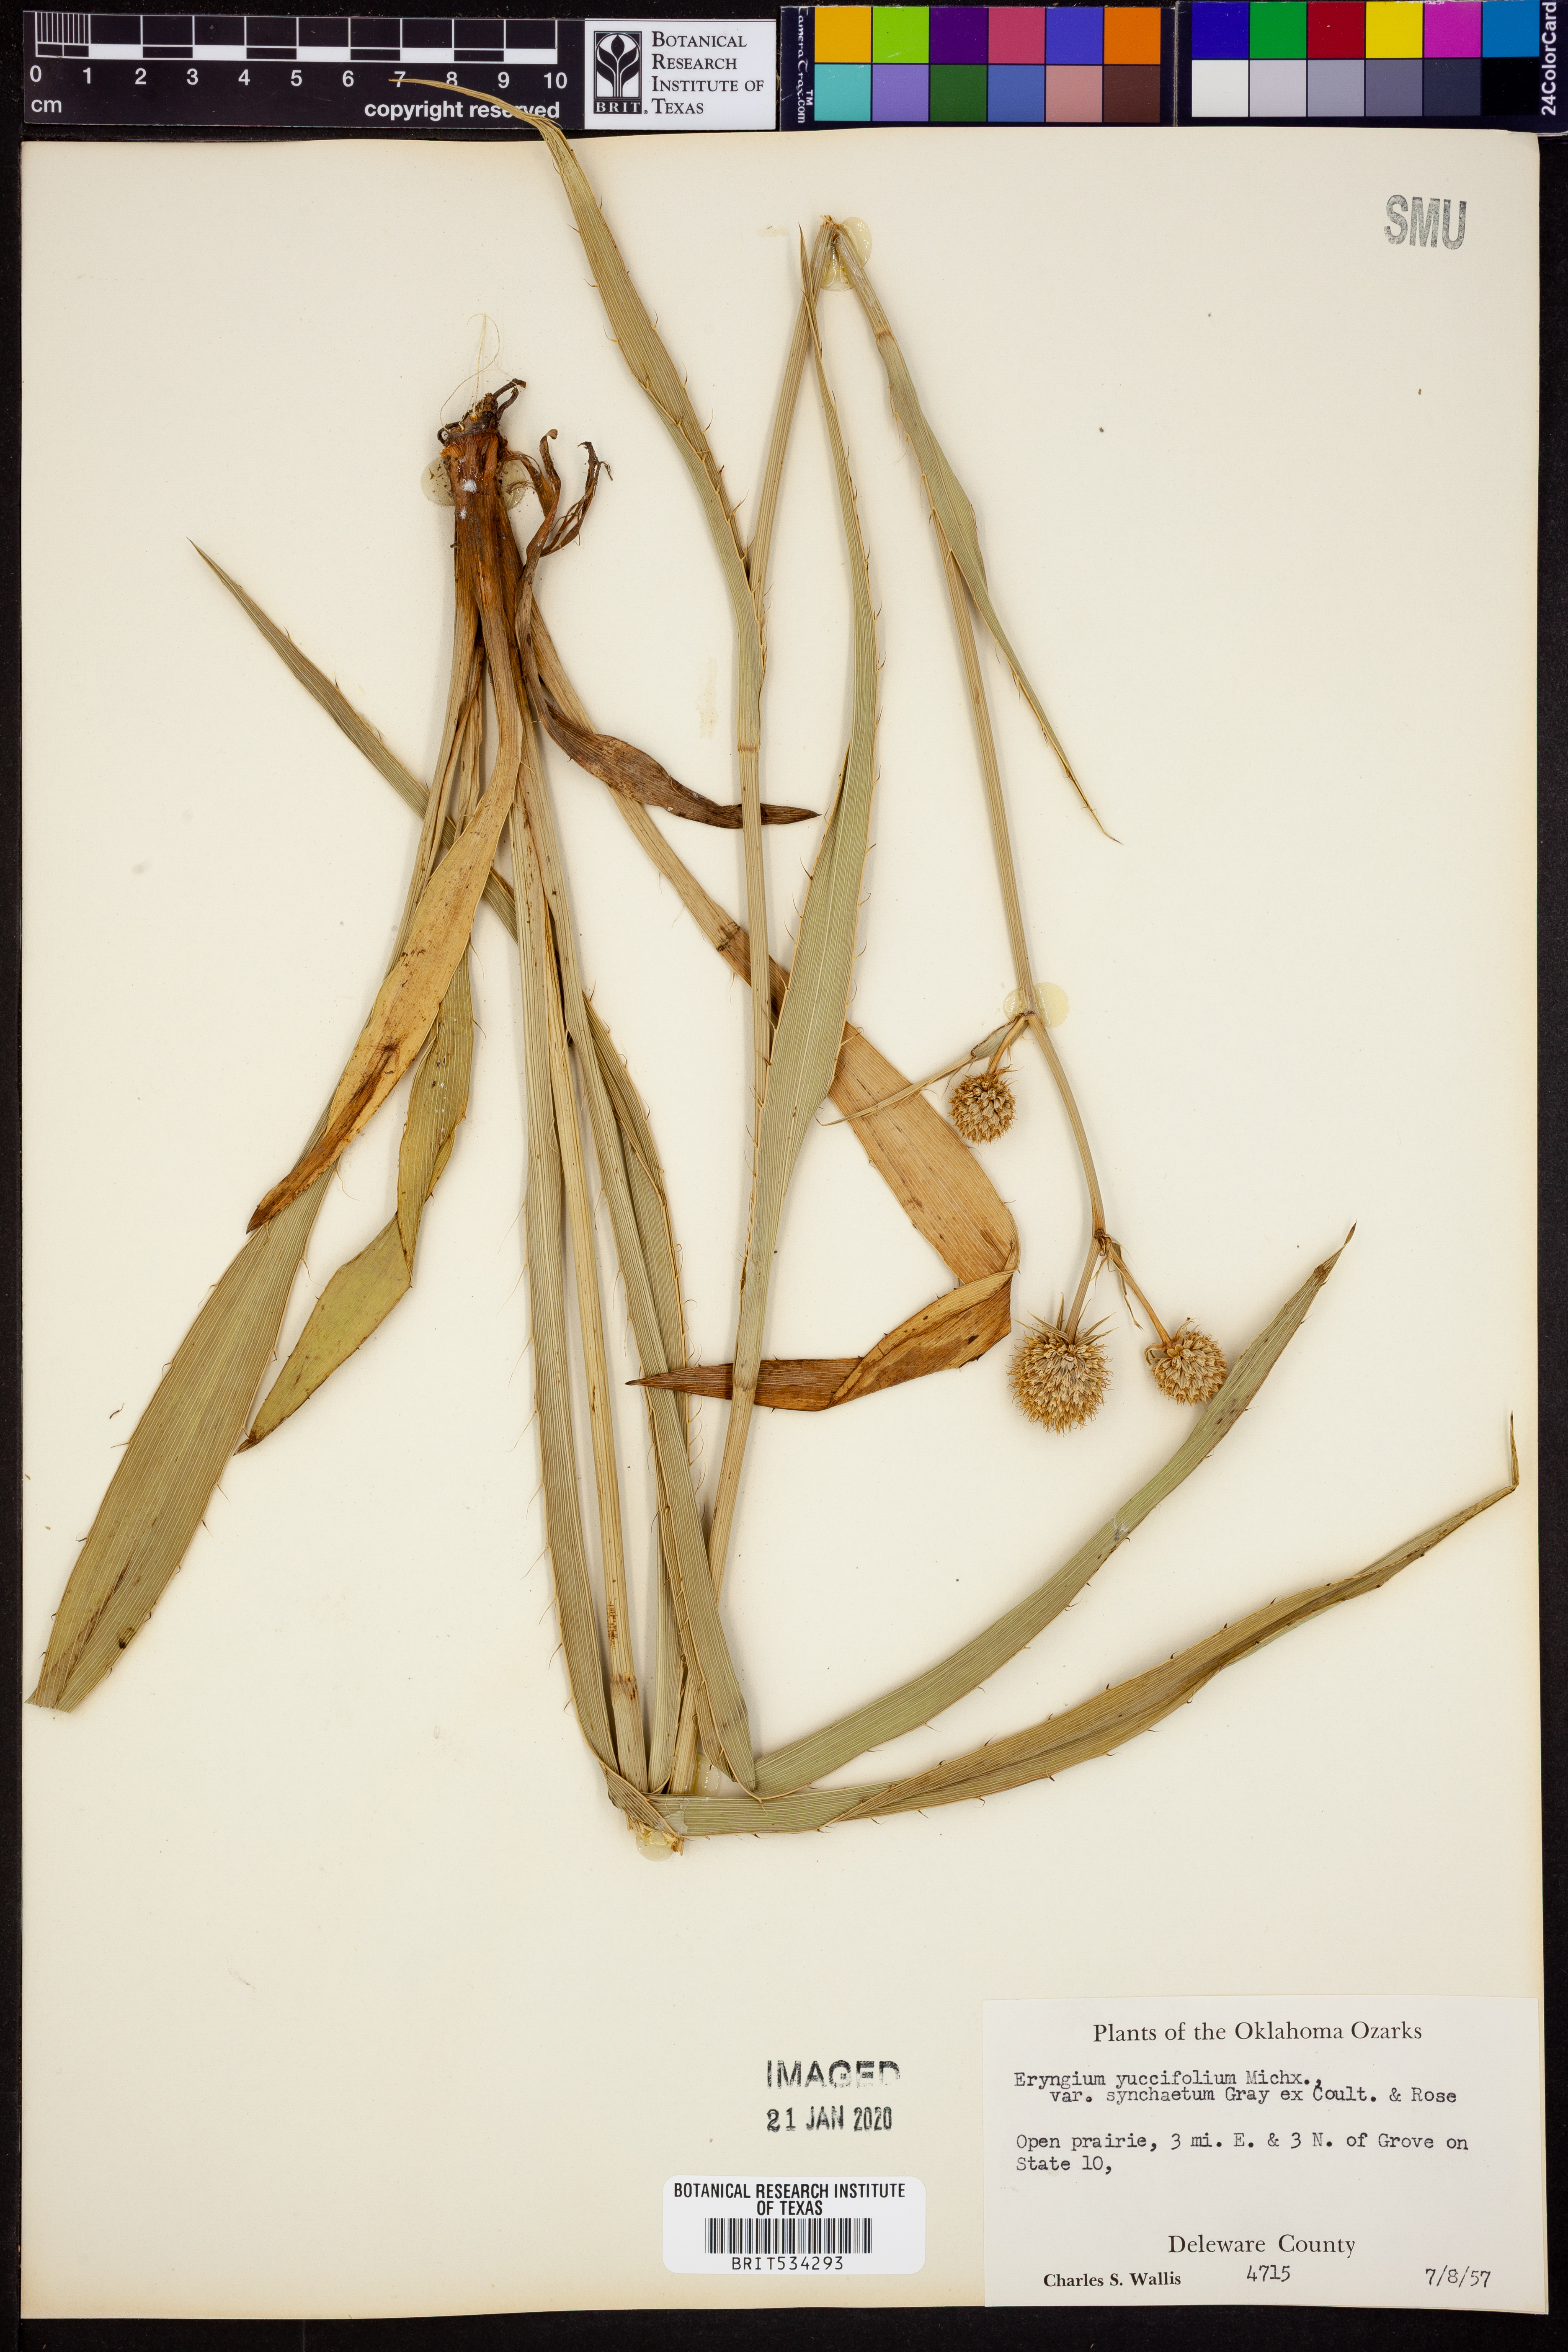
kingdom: Plantae
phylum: Tracheophyta
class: Magnoliopsida
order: Apiales
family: Apiaceae
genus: Eryngium
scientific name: Eryngium yuccifolium
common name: Button eryngo
